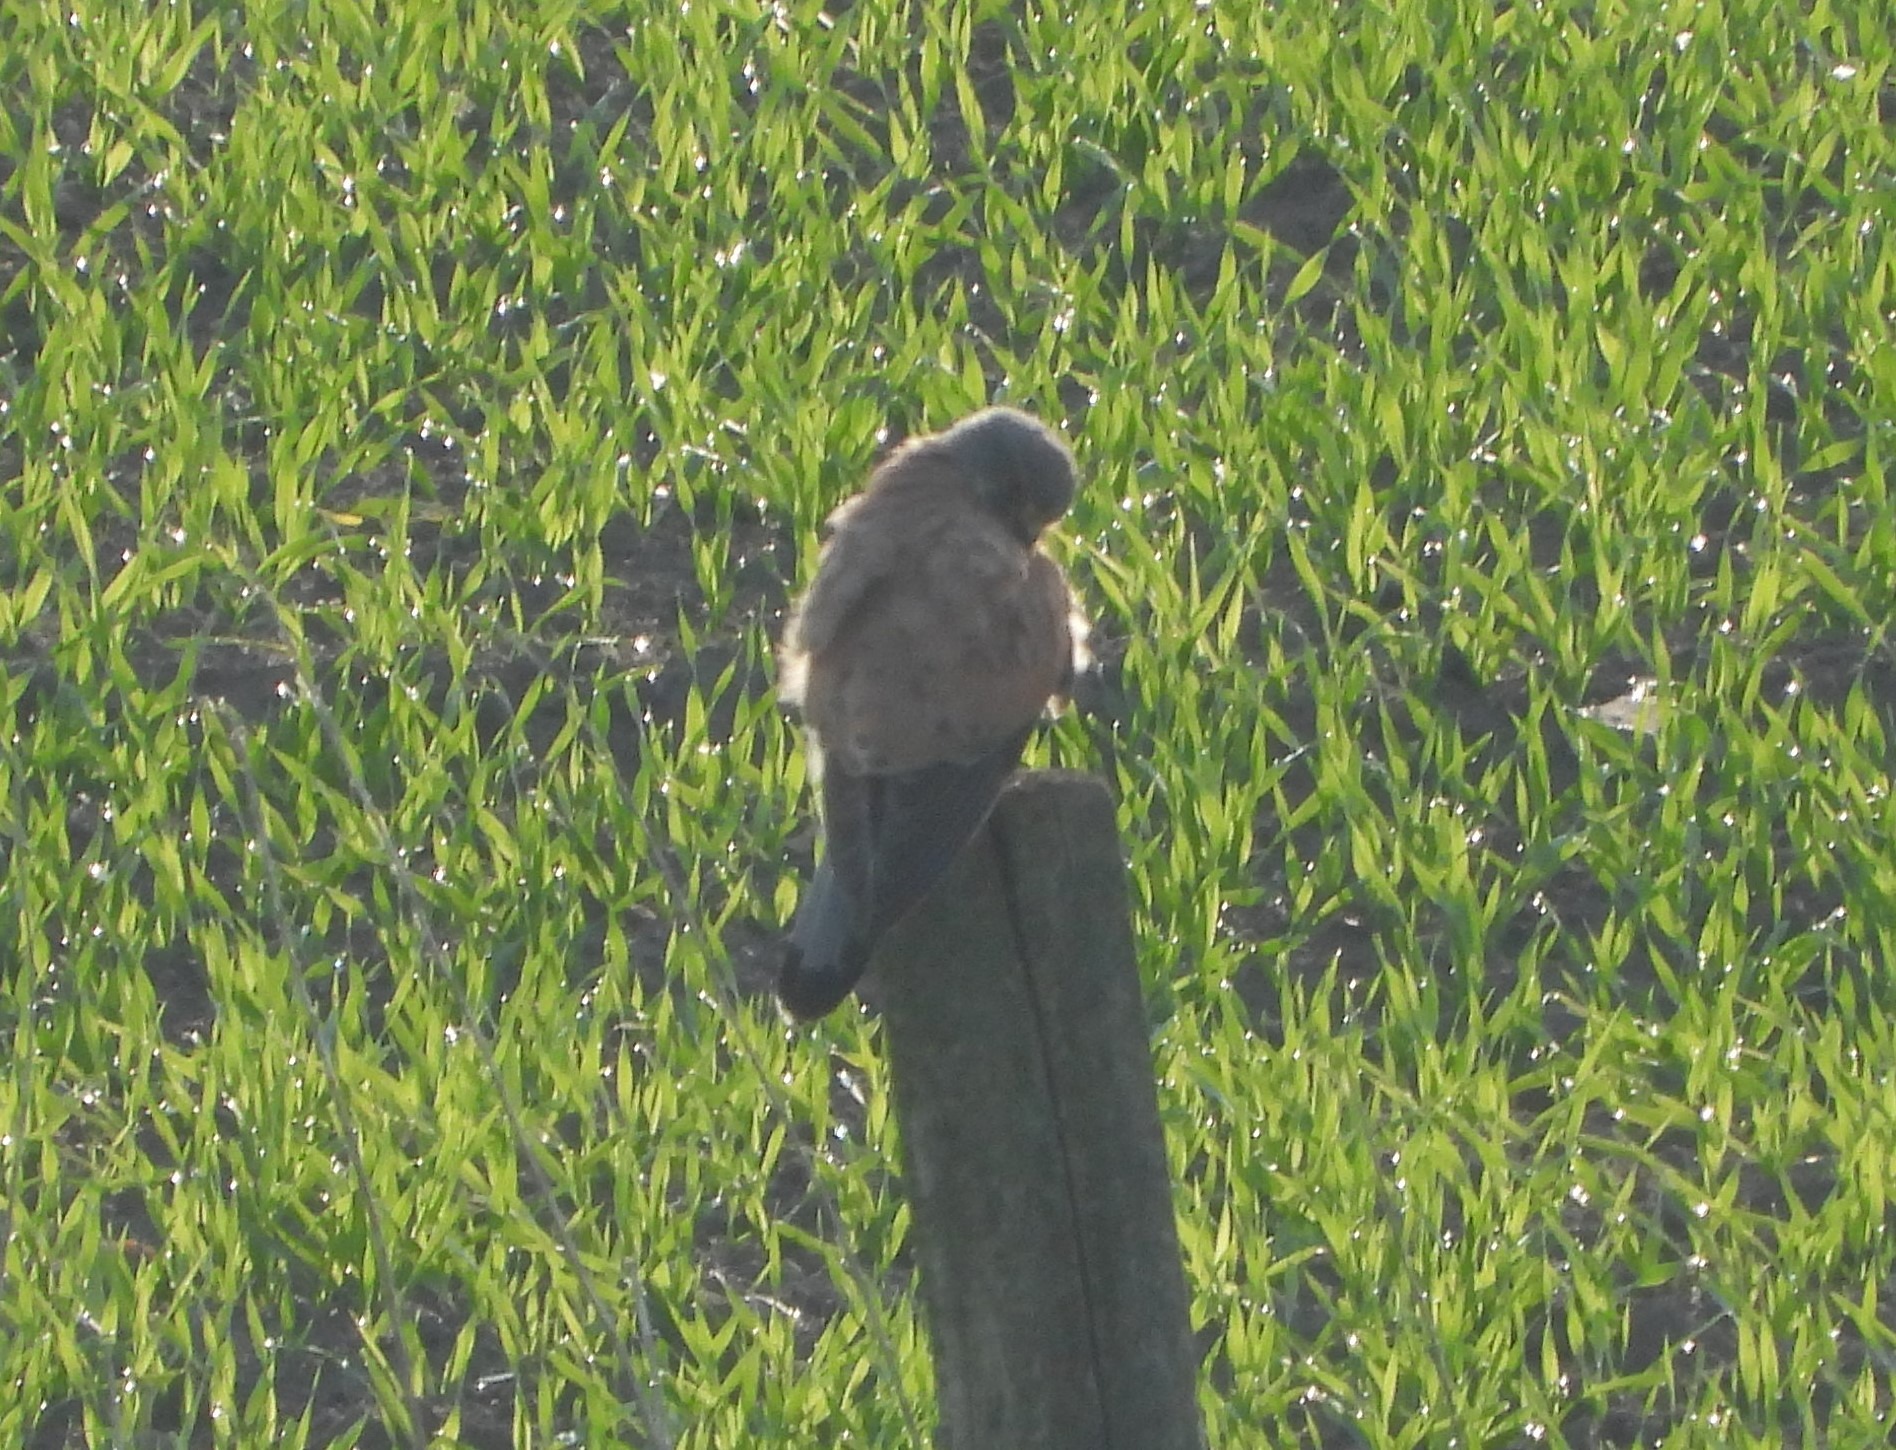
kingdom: Animalia
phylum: Chordata
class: Aves
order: Falconiformes
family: Falconidae
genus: Falco
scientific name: Falco tinnunculus
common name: Tårnfalk
